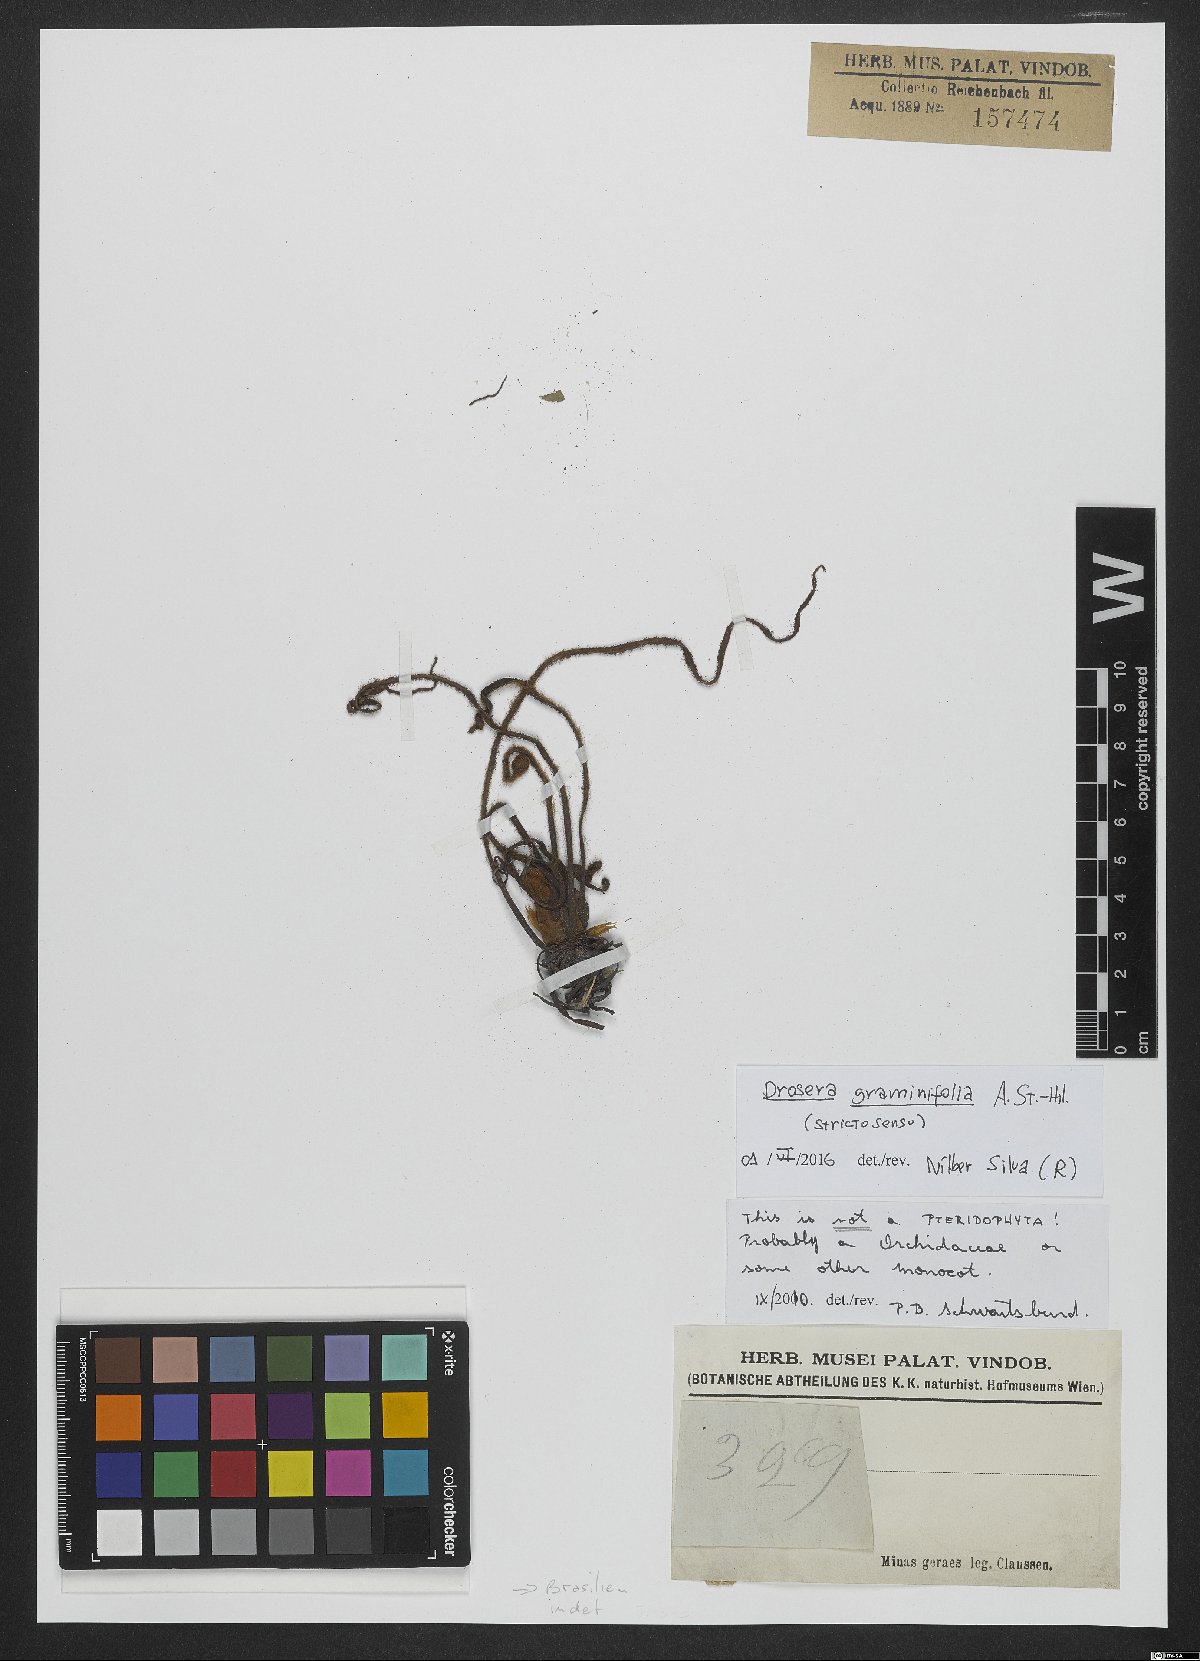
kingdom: Plantae
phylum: Tracheophyta
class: Magnoliopsida
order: Caryophyllales
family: Droseraceae
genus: Drosera
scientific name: Drosera graminifolia
